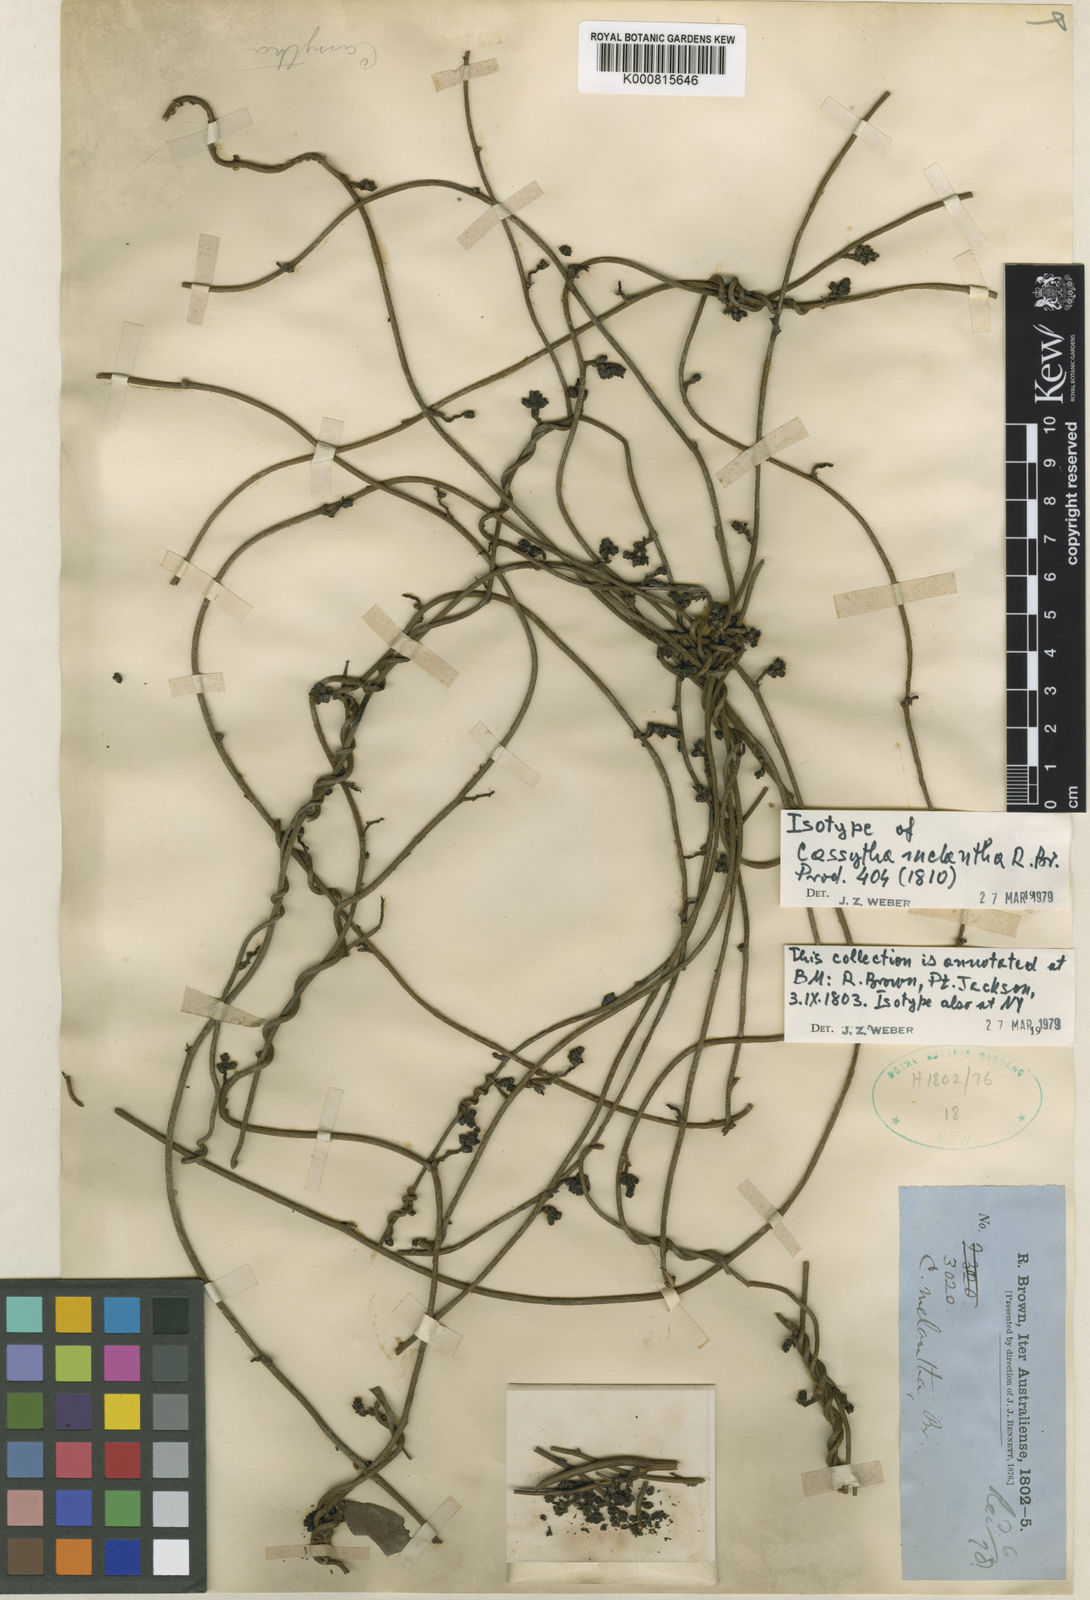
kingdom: Plantae
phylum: Tracheophyta
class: Magnoliopsida
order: Laurales
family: Lauraceae
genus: Cassytha
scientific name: Cassytha melantha
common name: Mallee stranglevine
